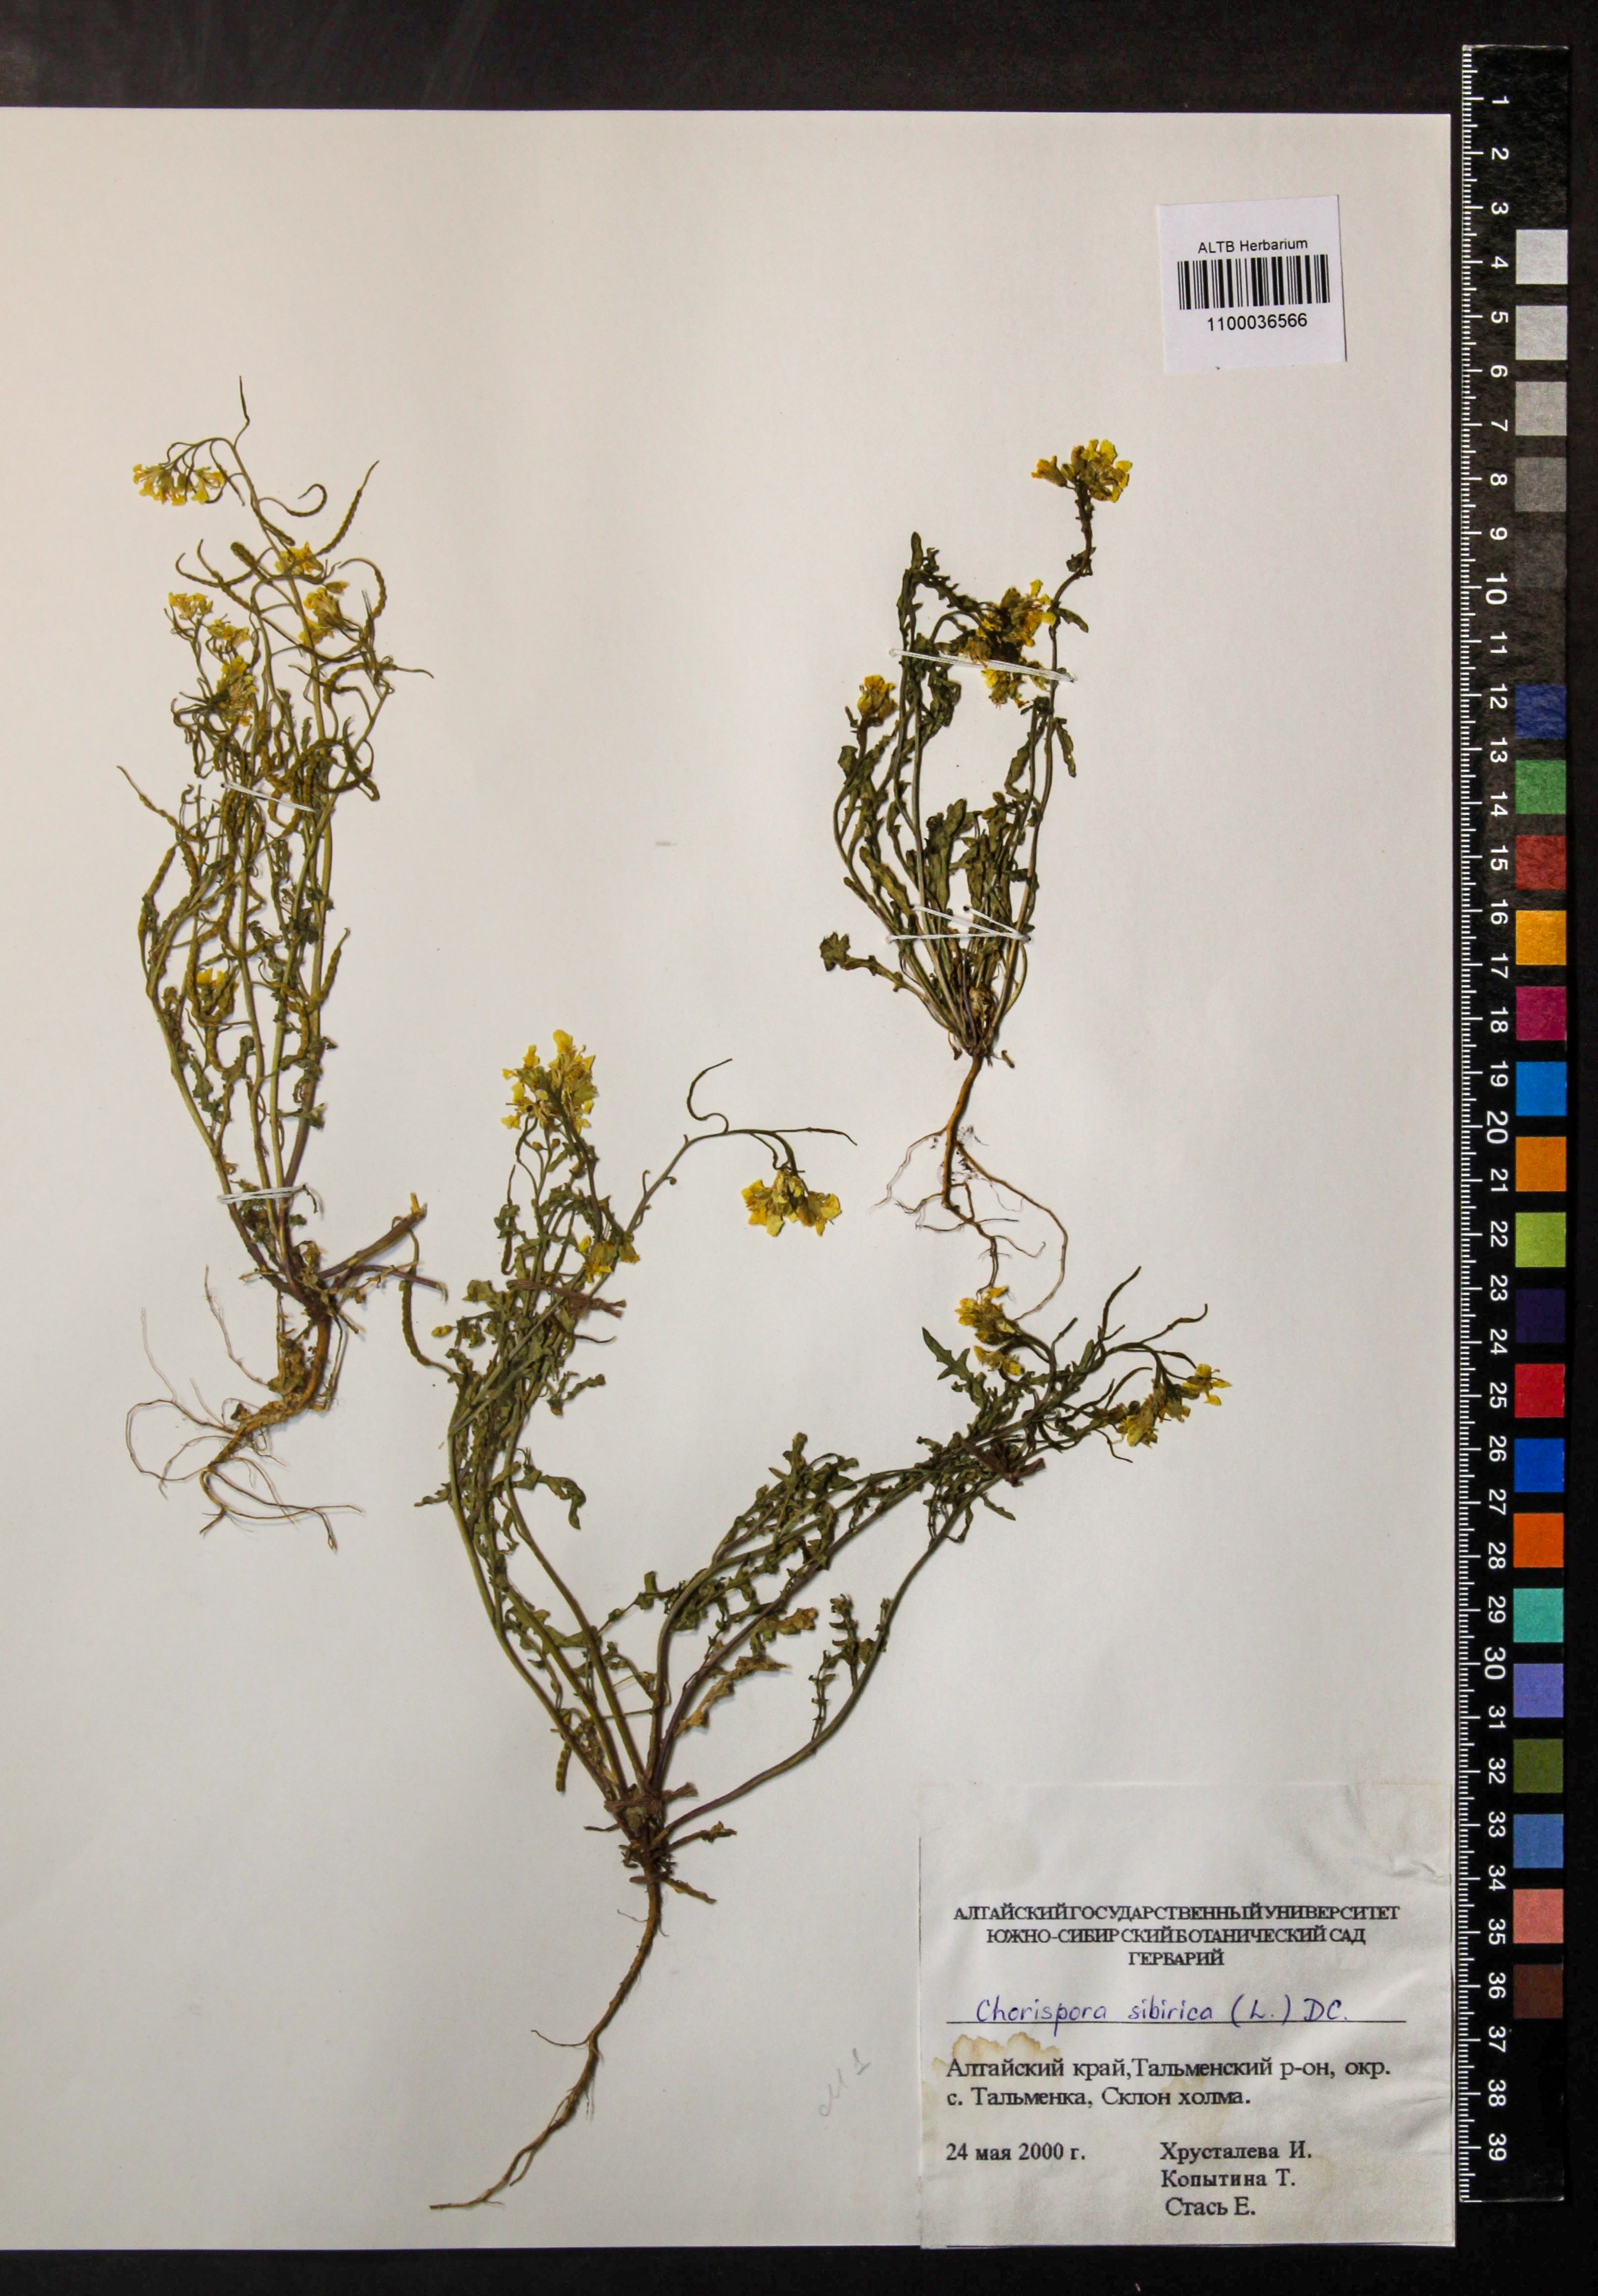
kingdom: Plantae
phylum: Tracheophyta
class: Magnoliopsida
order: Brassicales
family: Brassicaceae
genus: Chorispora
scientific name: Chorispora sibirica
